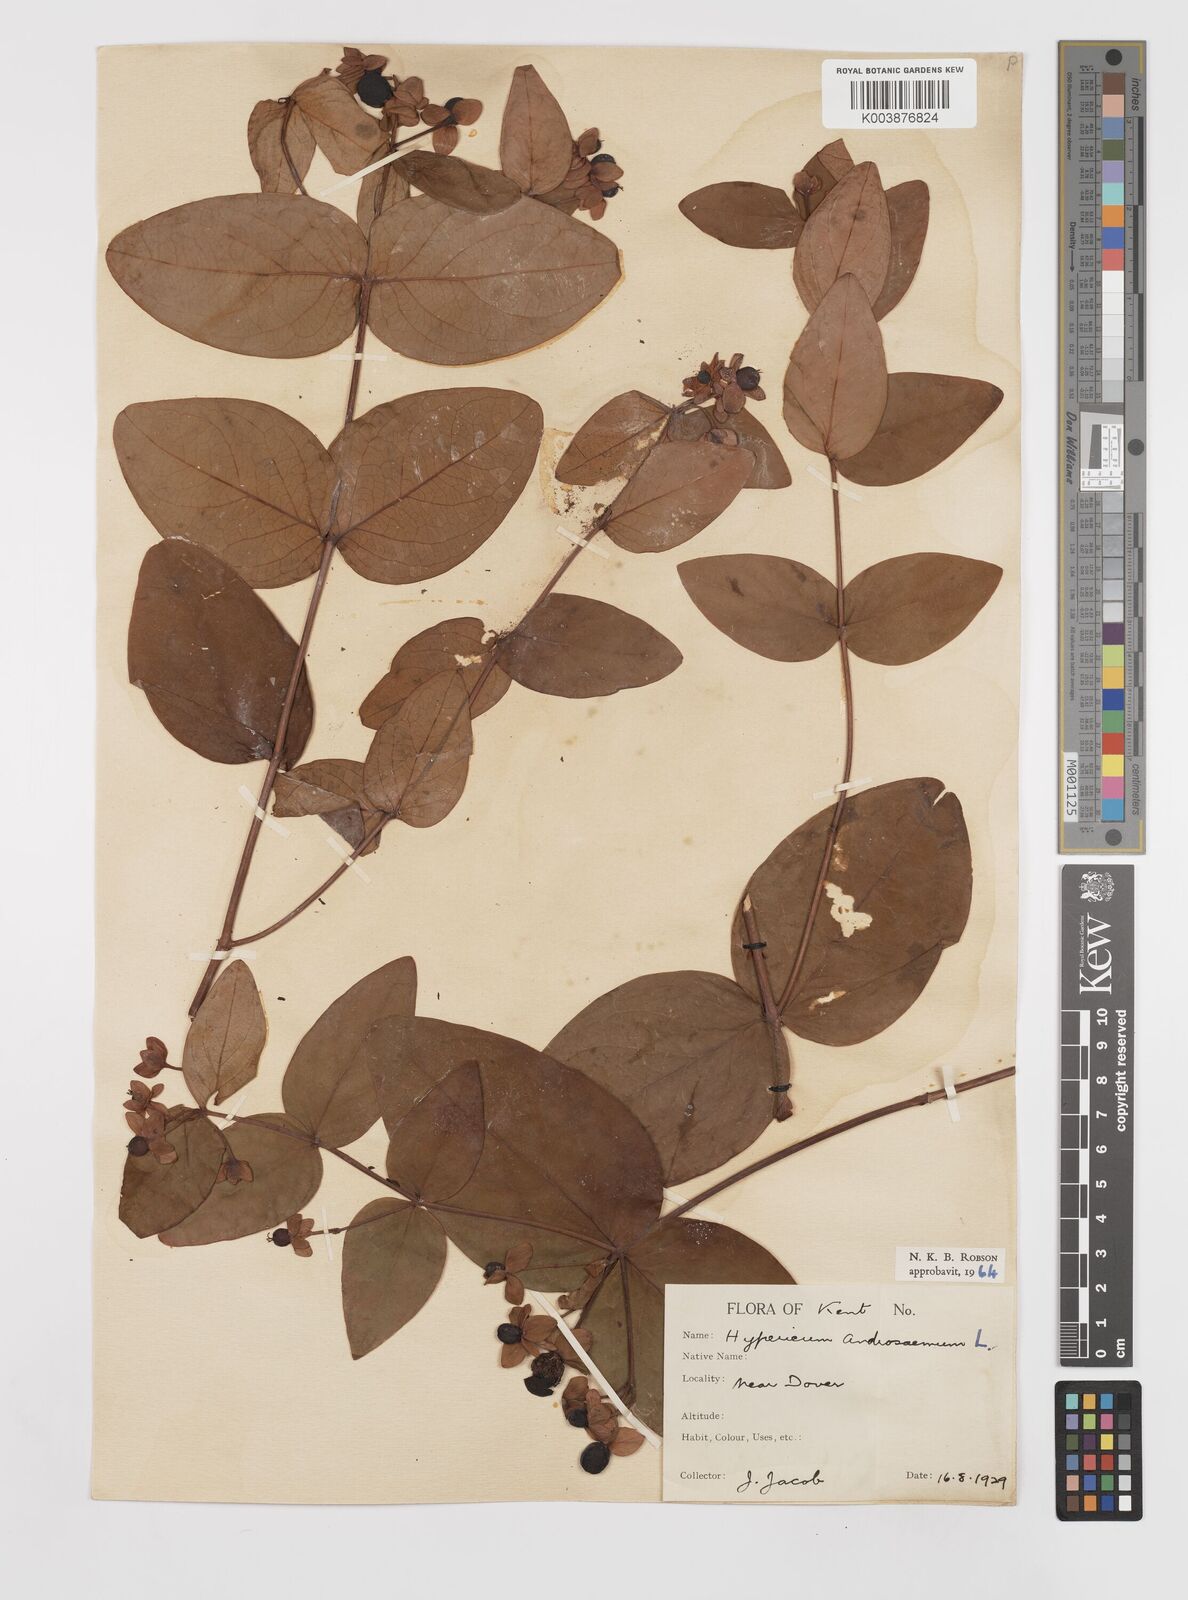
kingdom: Plantae
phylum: Tracheophyta
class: Magnoliopsida
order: Malpighiales
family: Hypericaceae
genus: Hypericum
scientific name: Hypericum androsaemum
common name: Sweet-amber
